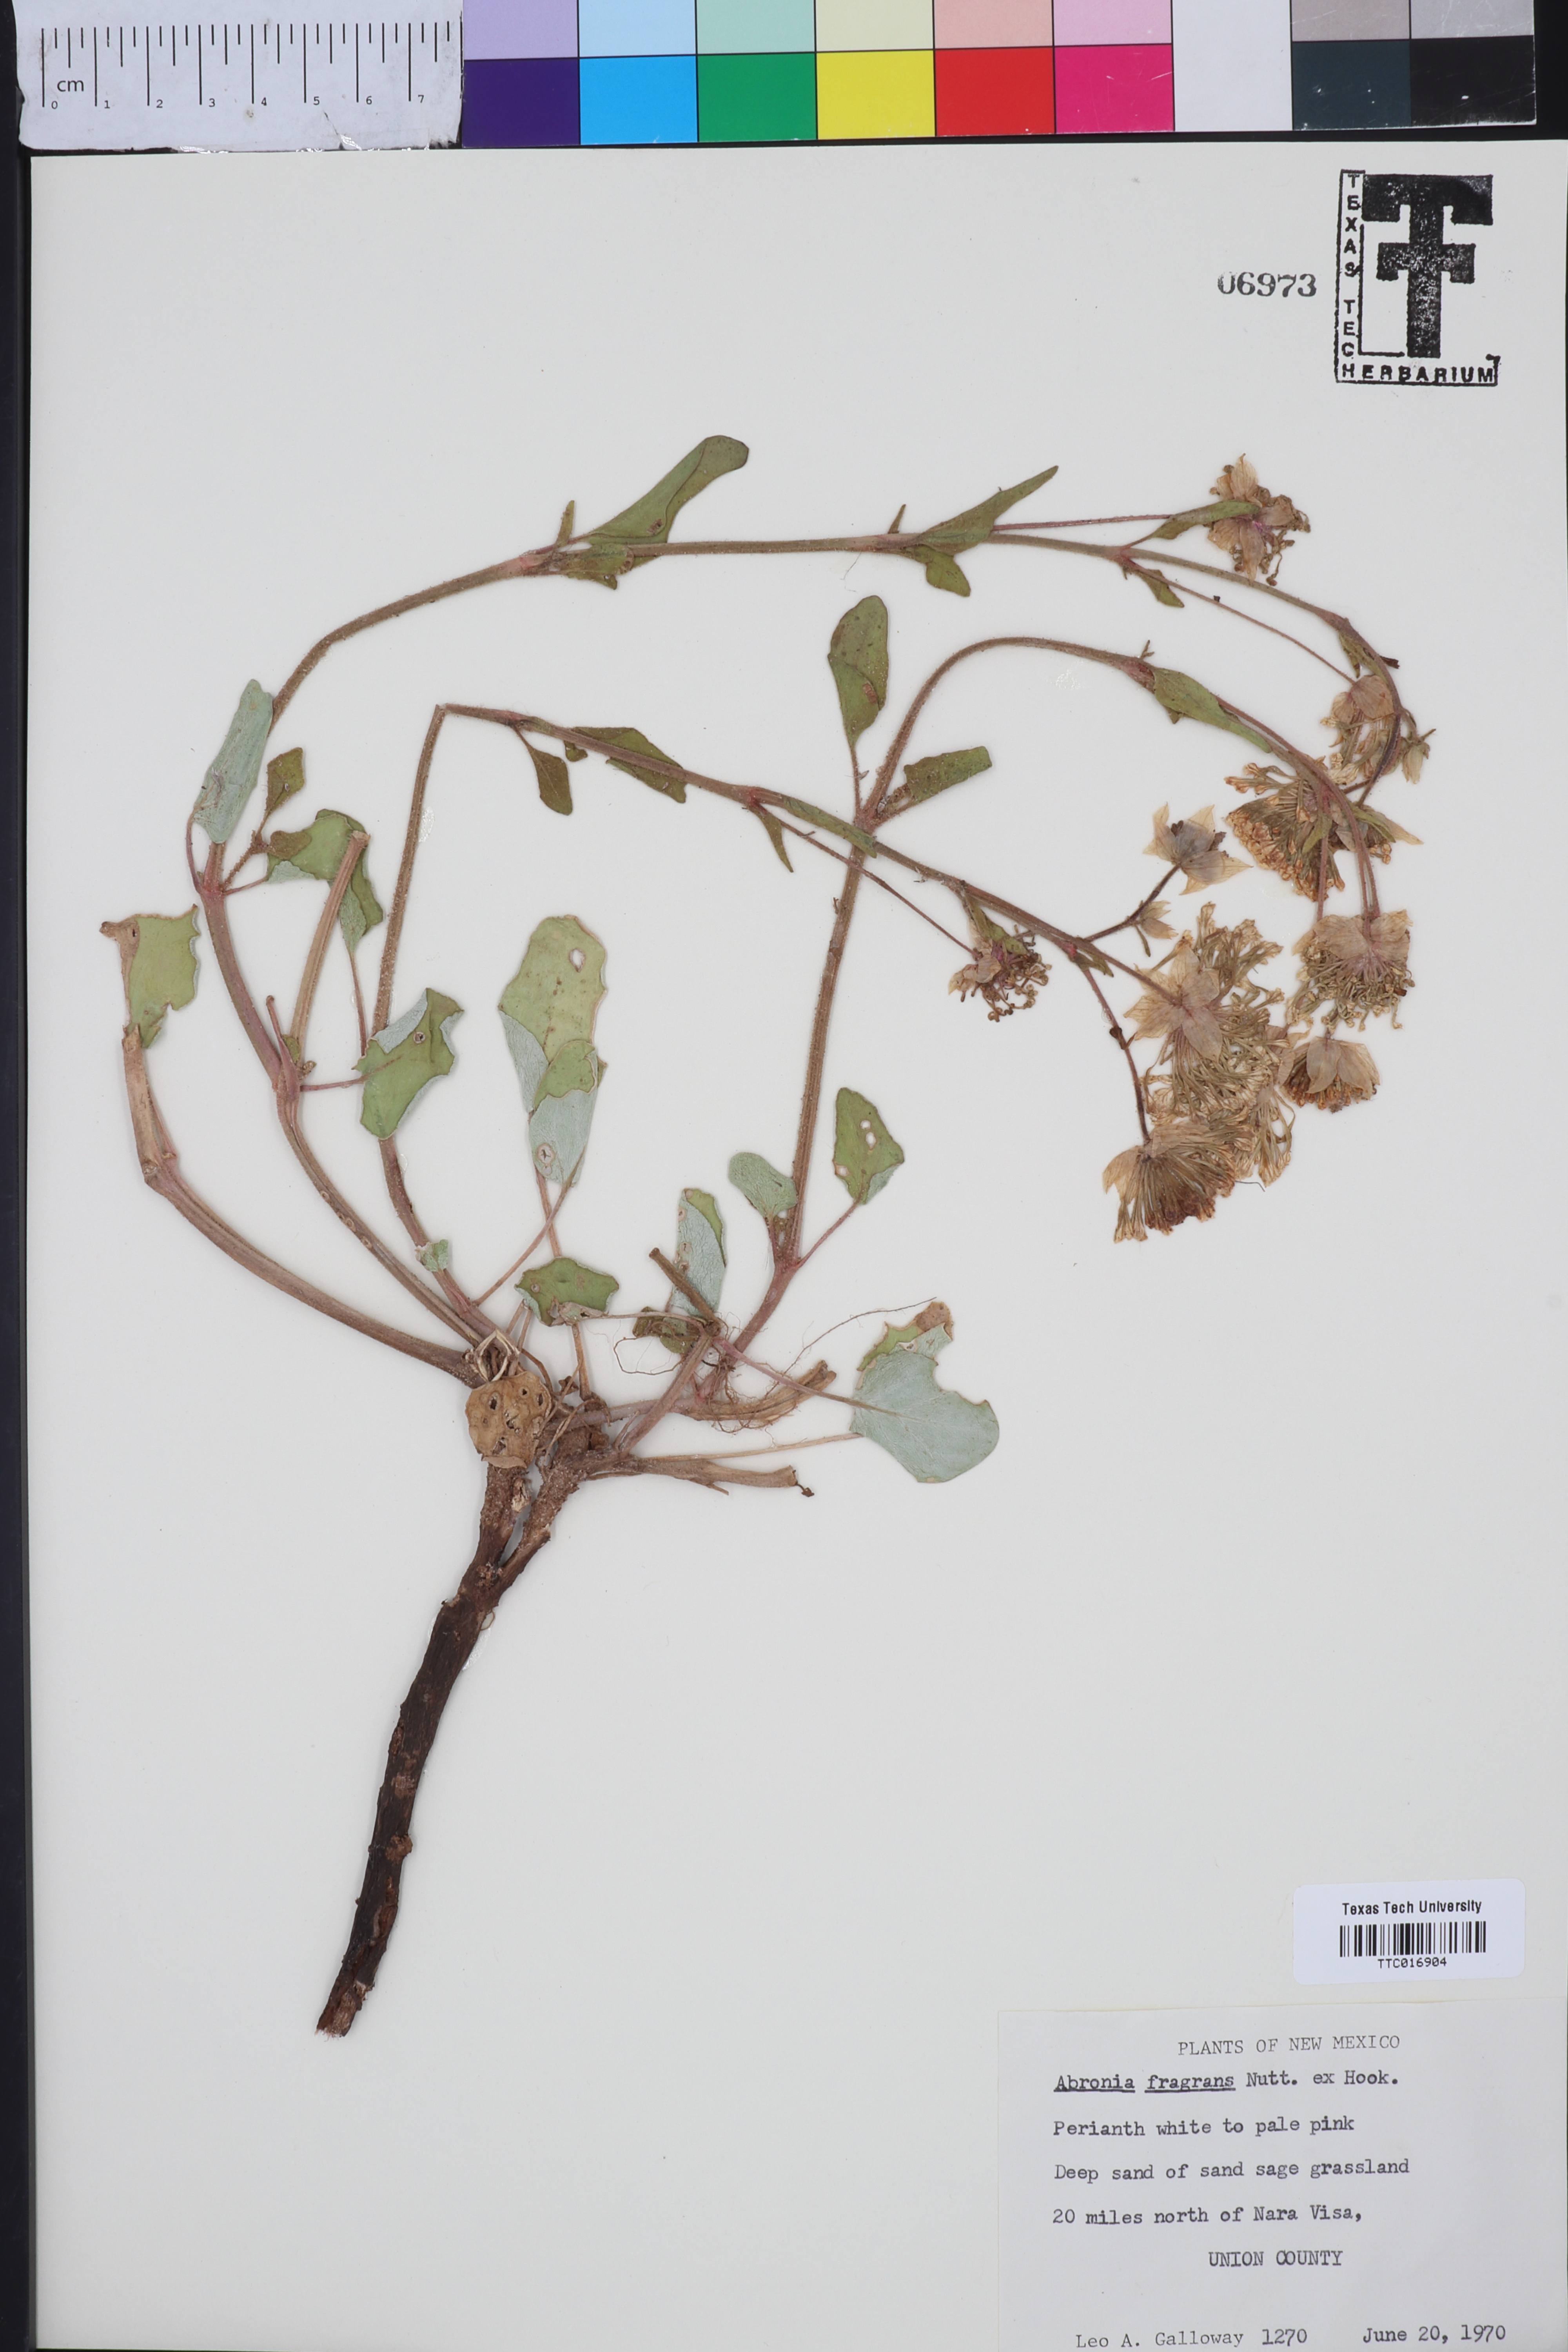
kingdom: Plantae
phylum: Tracheophyta
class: Magnoliopsida
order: Caryophyllales
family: Nyctaginaceae
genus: Abronia
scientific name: Abronia fragrans
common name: Fragrant sand-verbena
